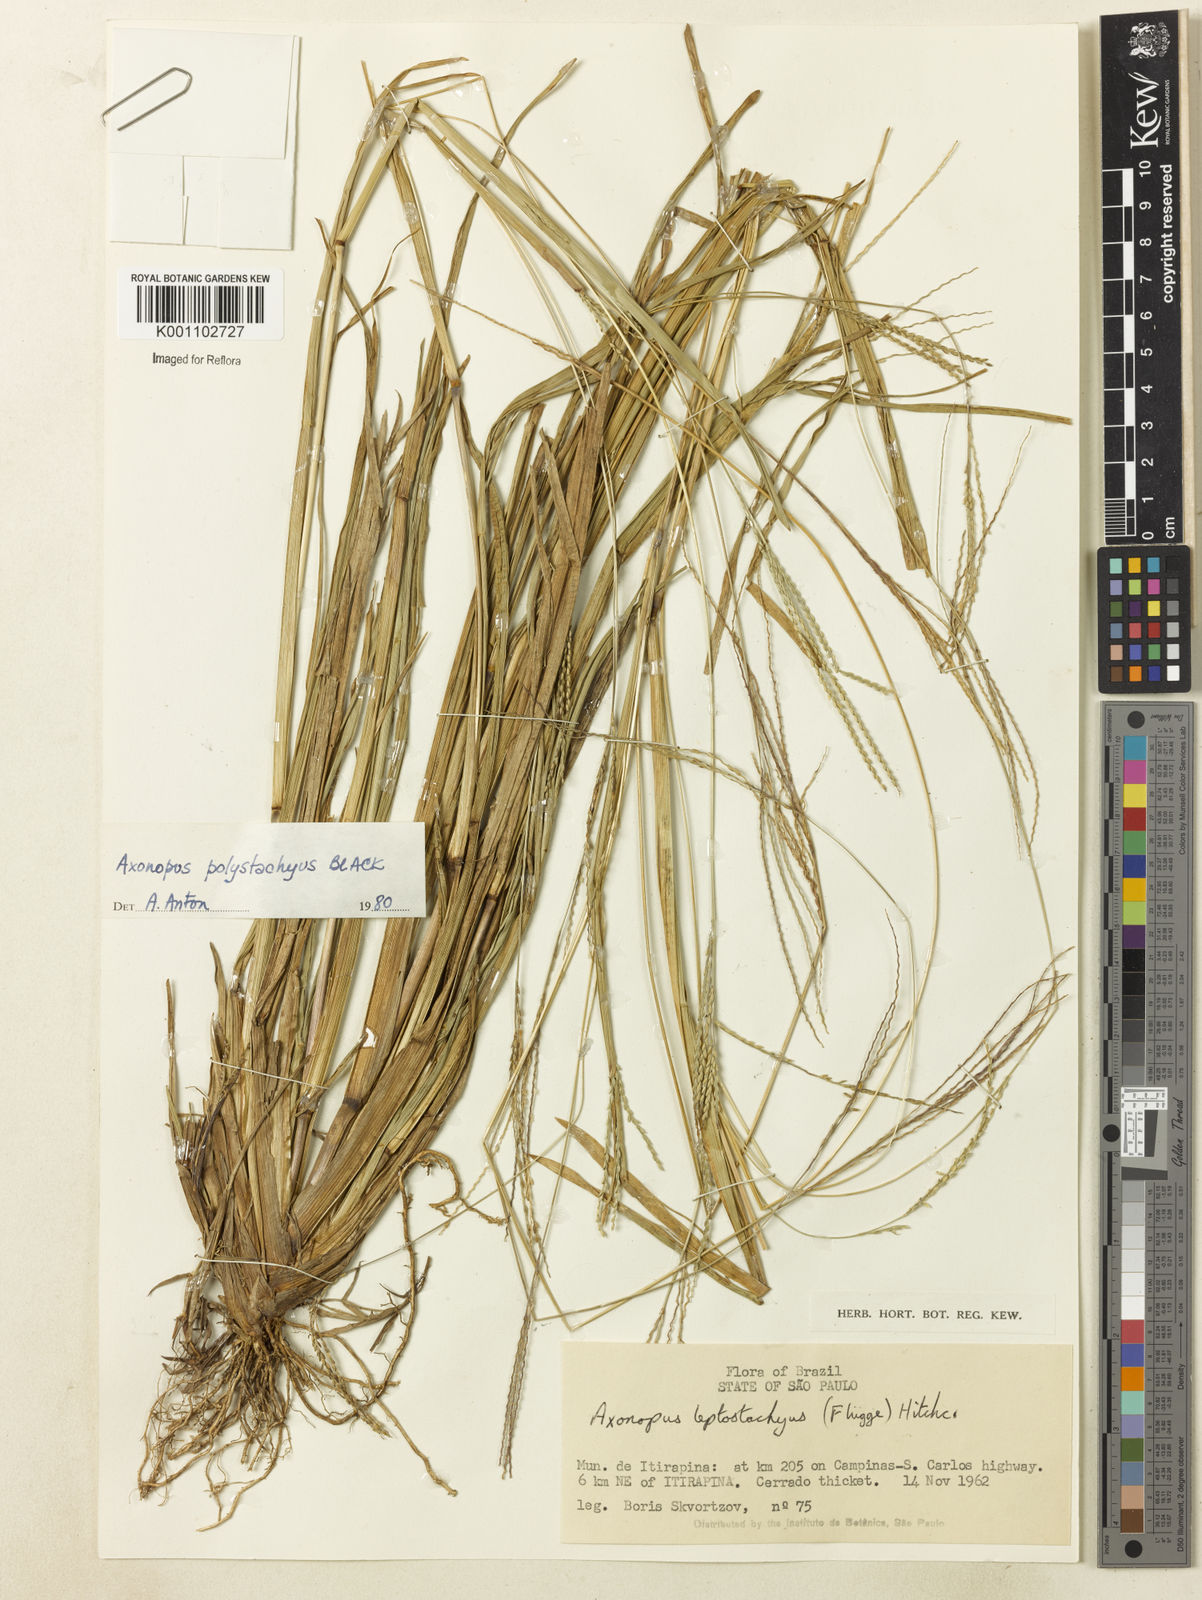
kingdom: Plantae
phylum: Tracheophyta
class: Liliopsida
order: Poales
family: Poaceae
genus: Axonopus
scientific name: Axonopus polystachyus
